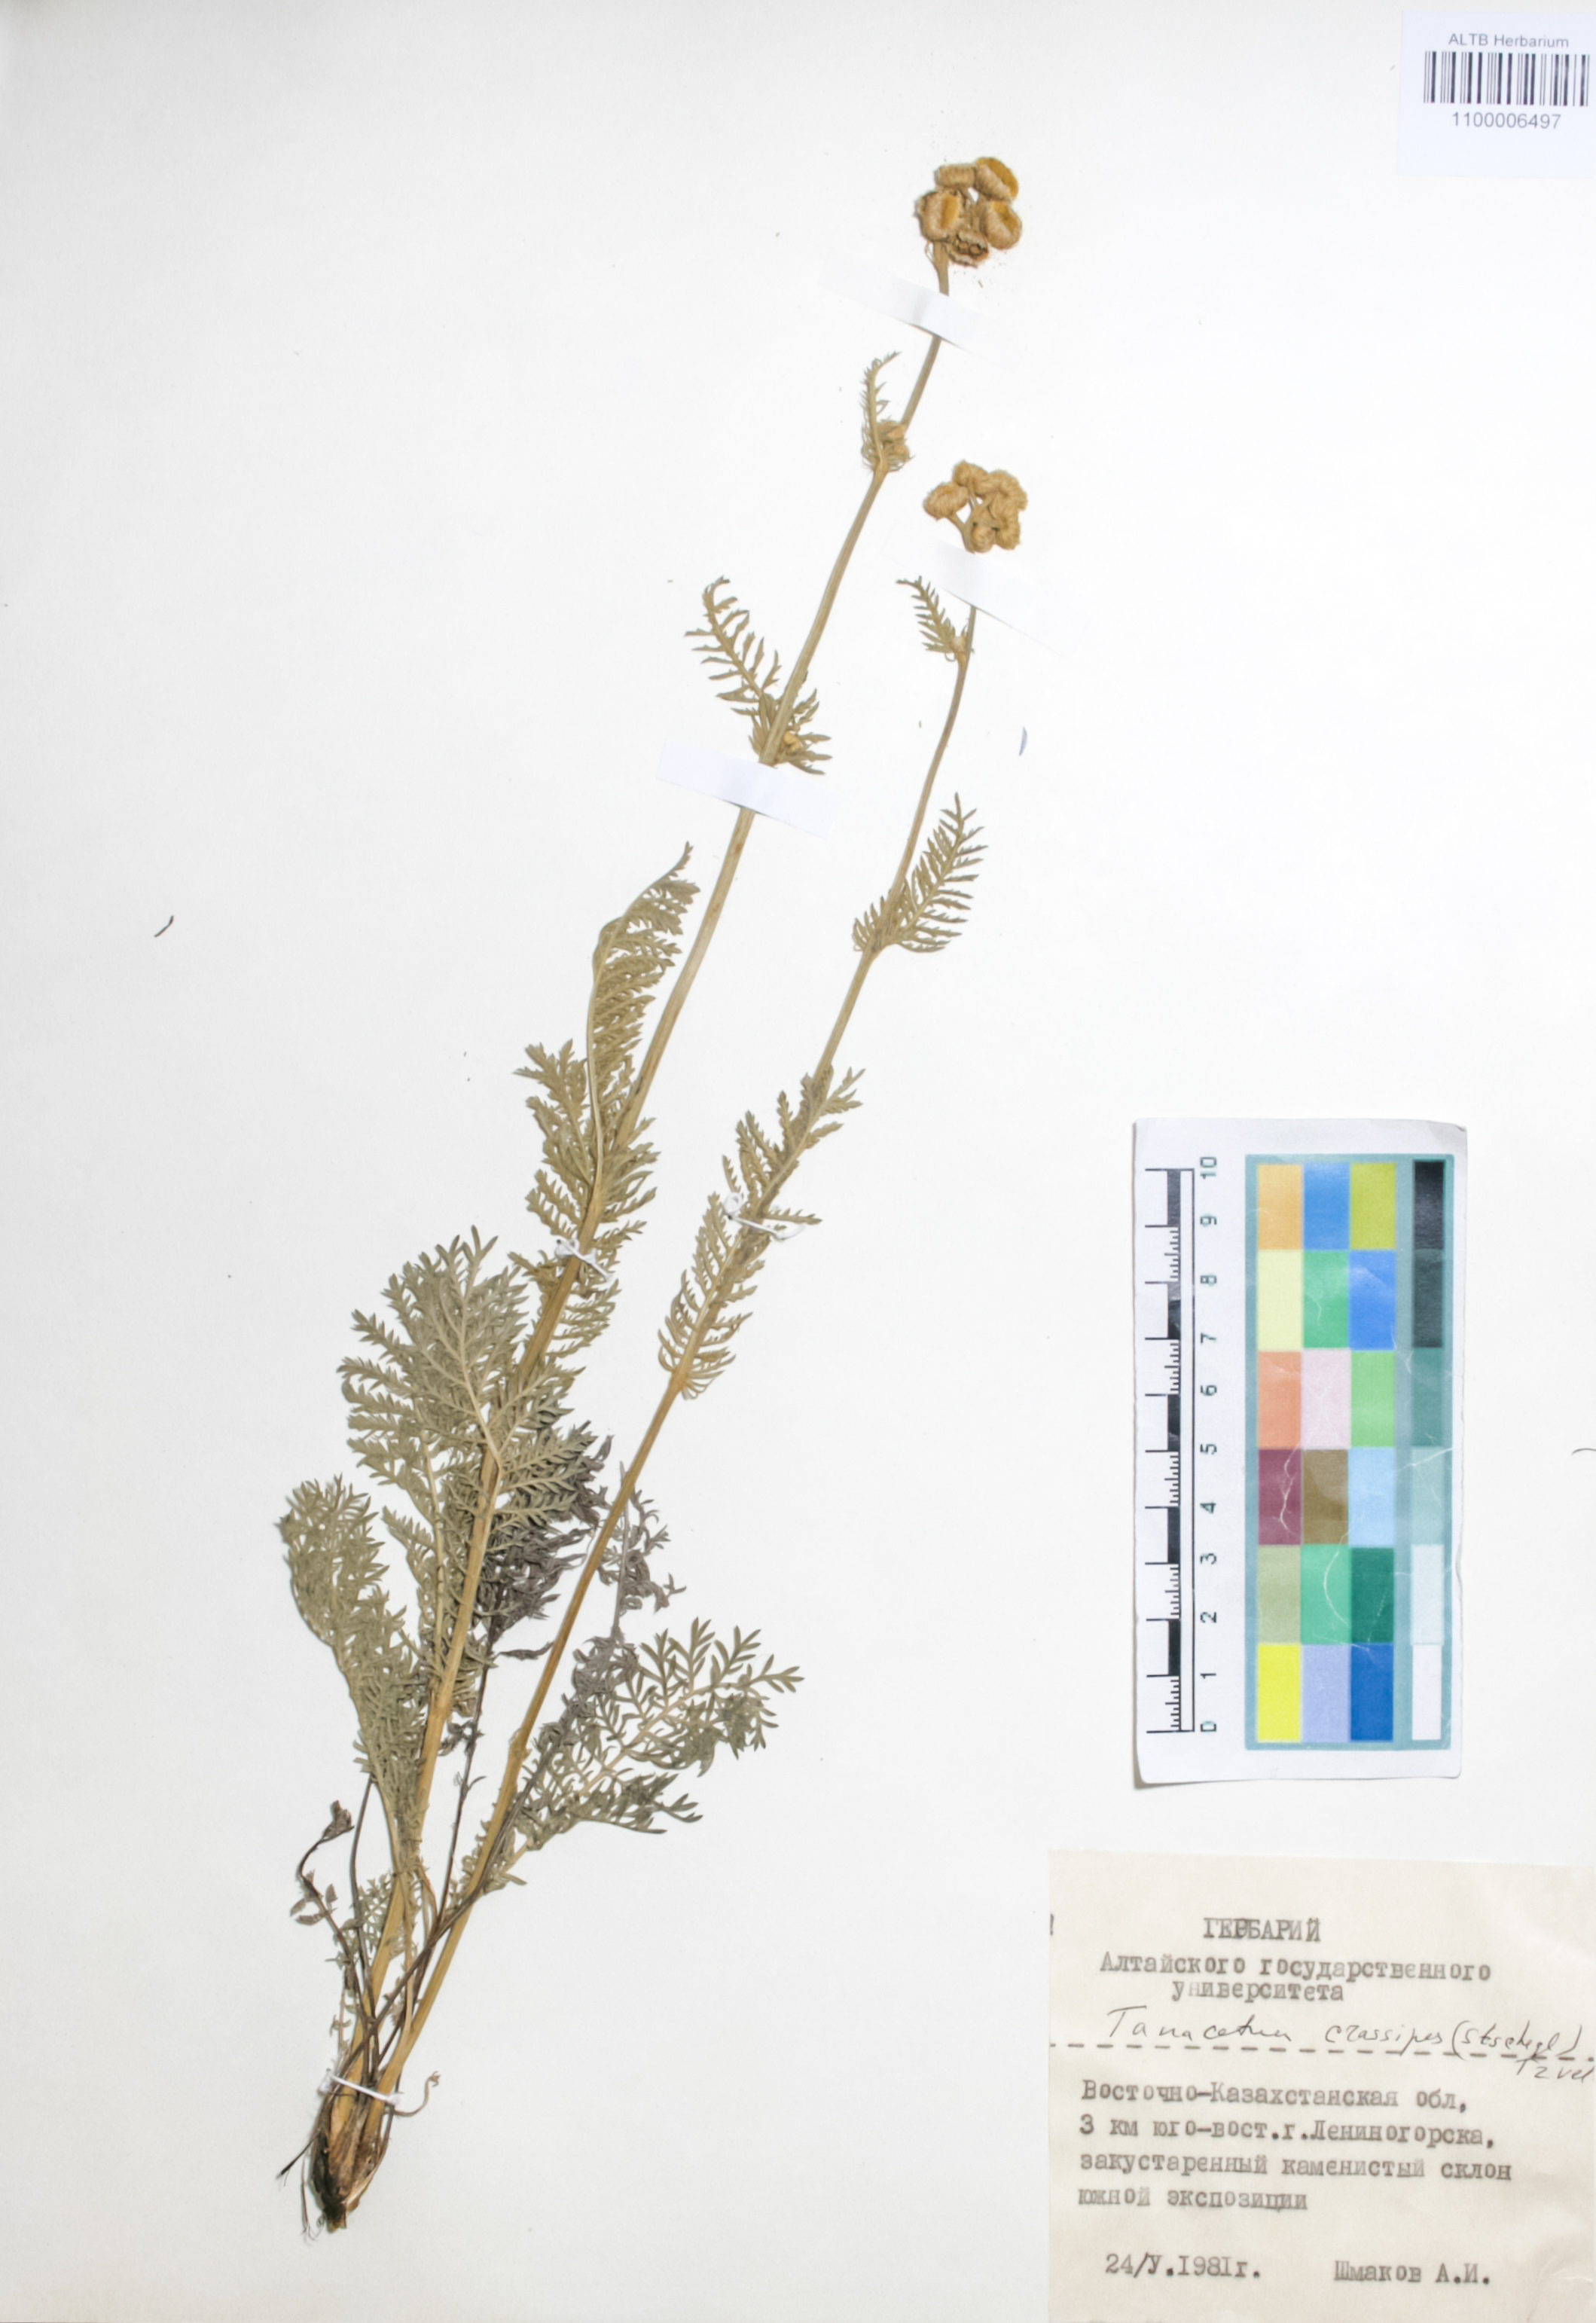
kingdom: Plantae
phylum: Tracheophyta
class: Magnoliopsida
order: Asterales
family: Asteraceae
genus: Tanacetum
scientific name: Tanacetum crassipes
